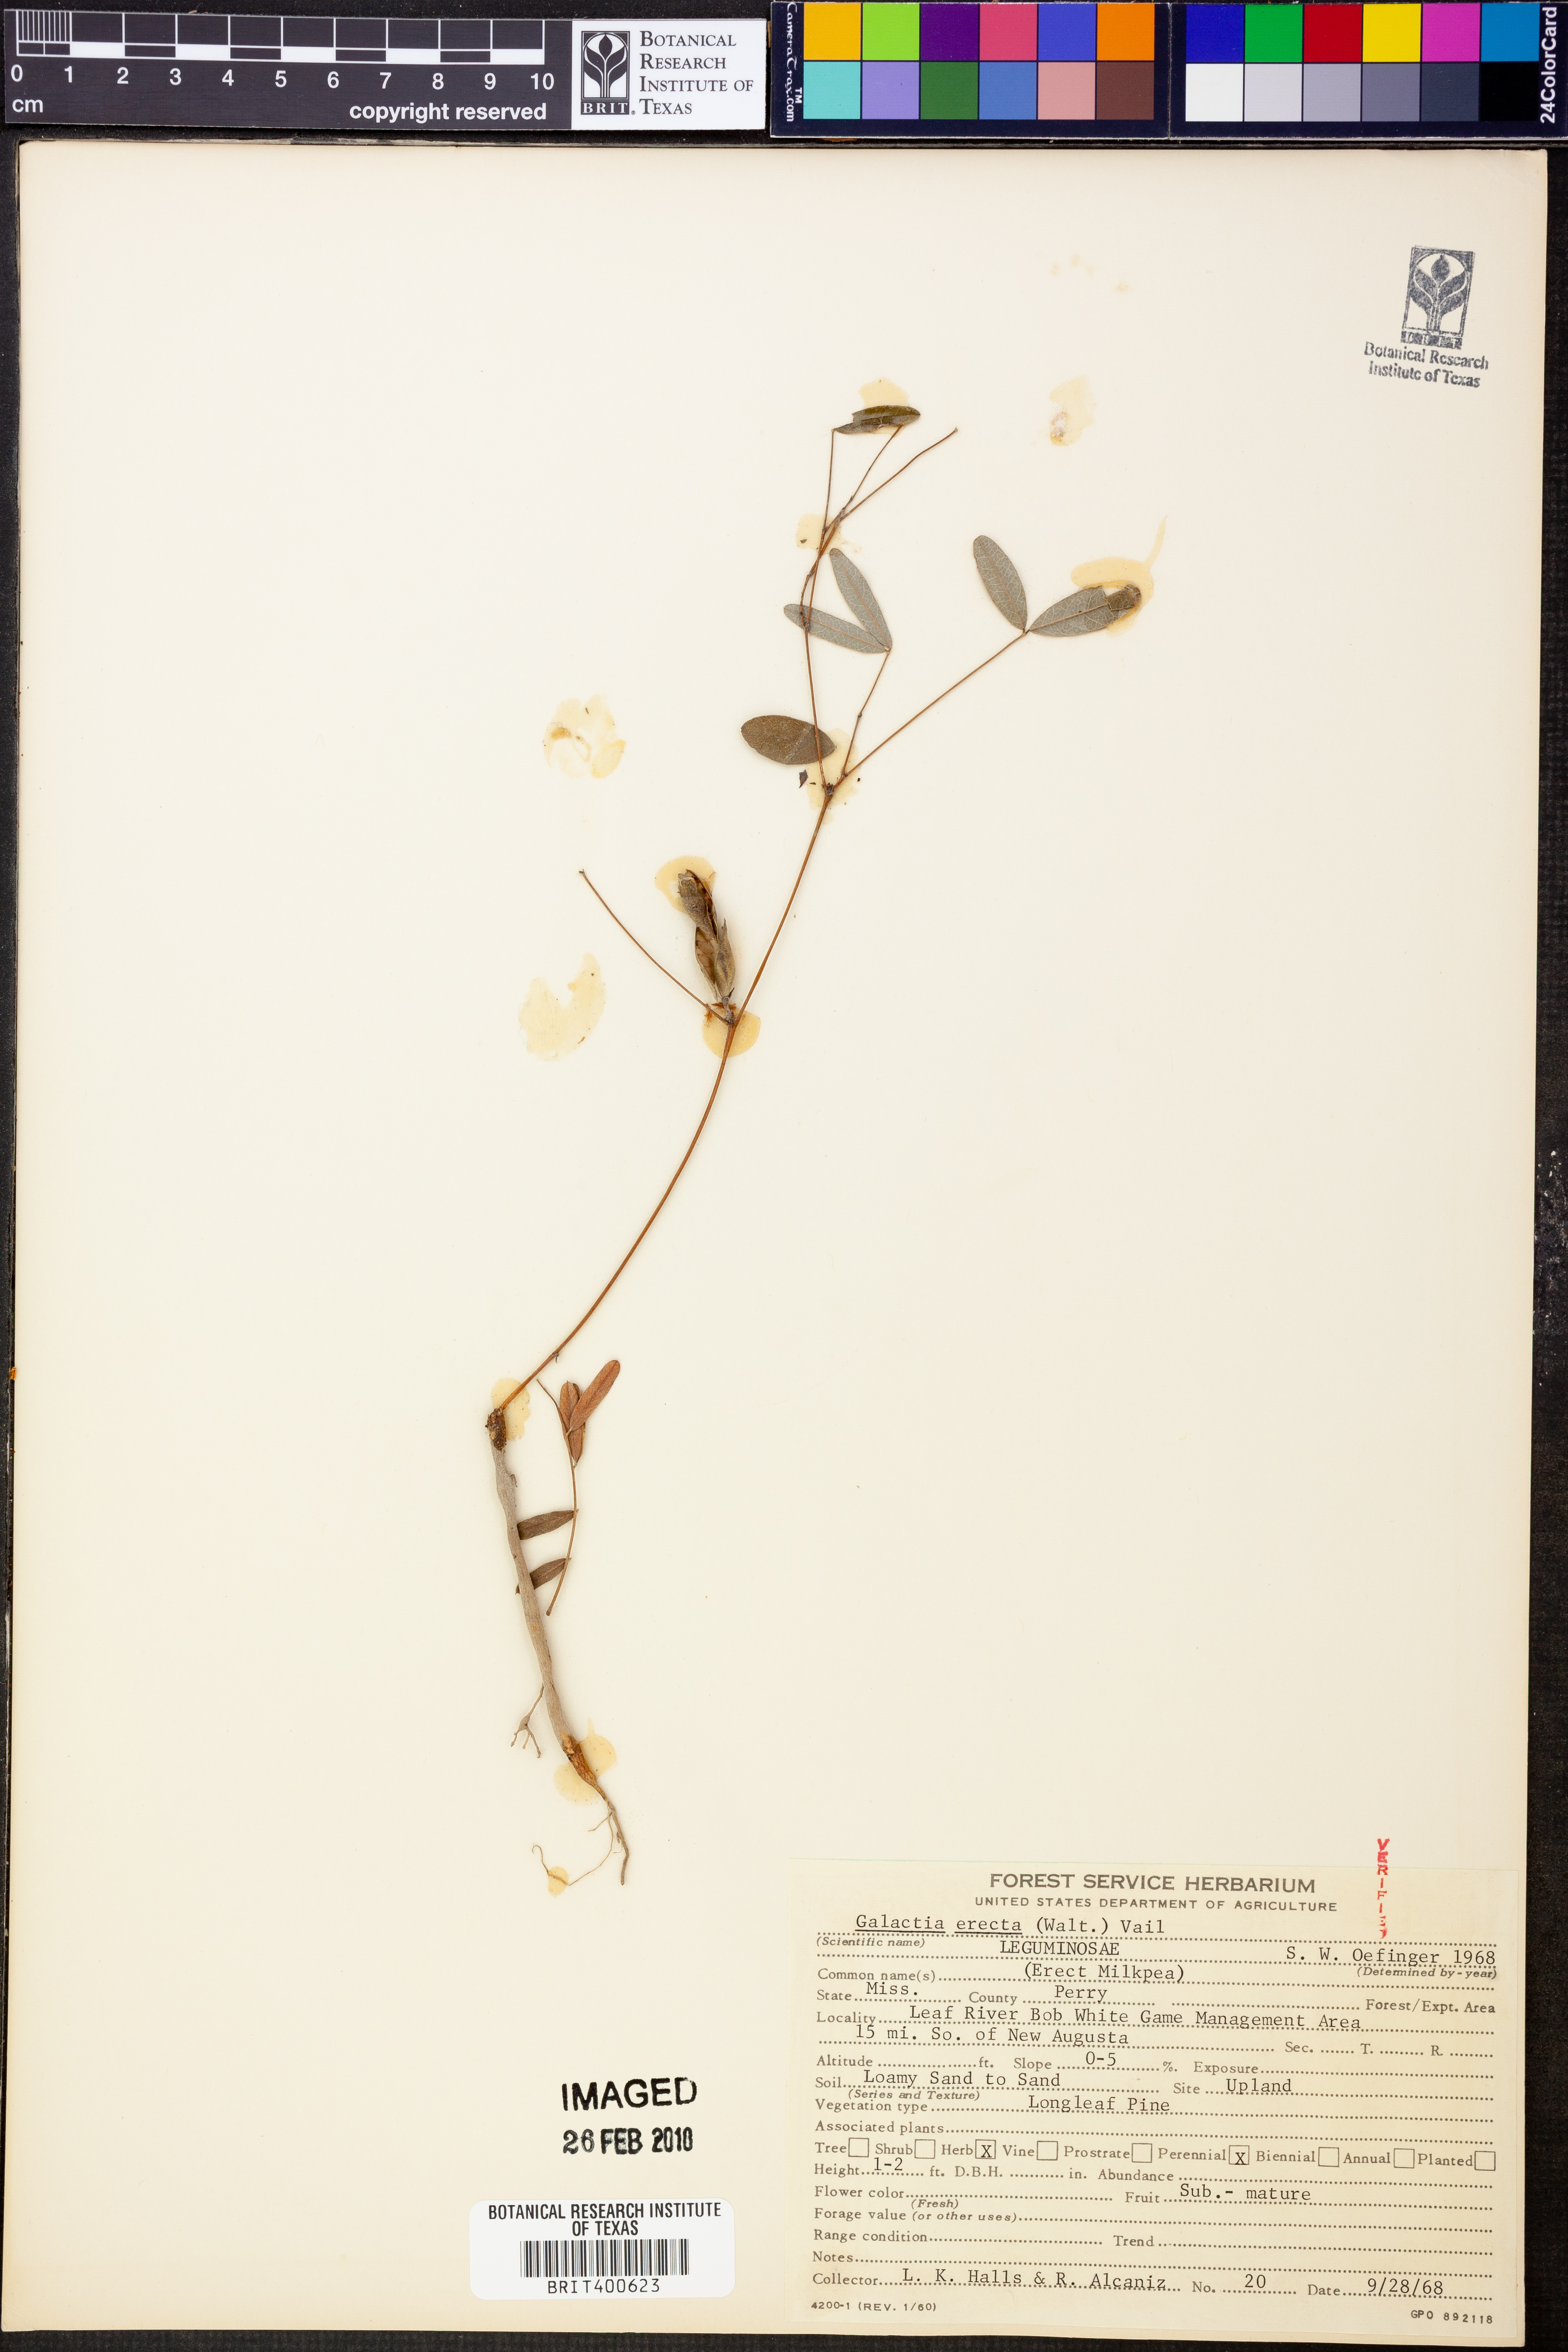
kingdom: Plantae
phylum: Tracheophyta
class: Magnoliopsida
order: Fabales
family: Fabaceae
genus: Galactia
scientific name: Galactia erecta
